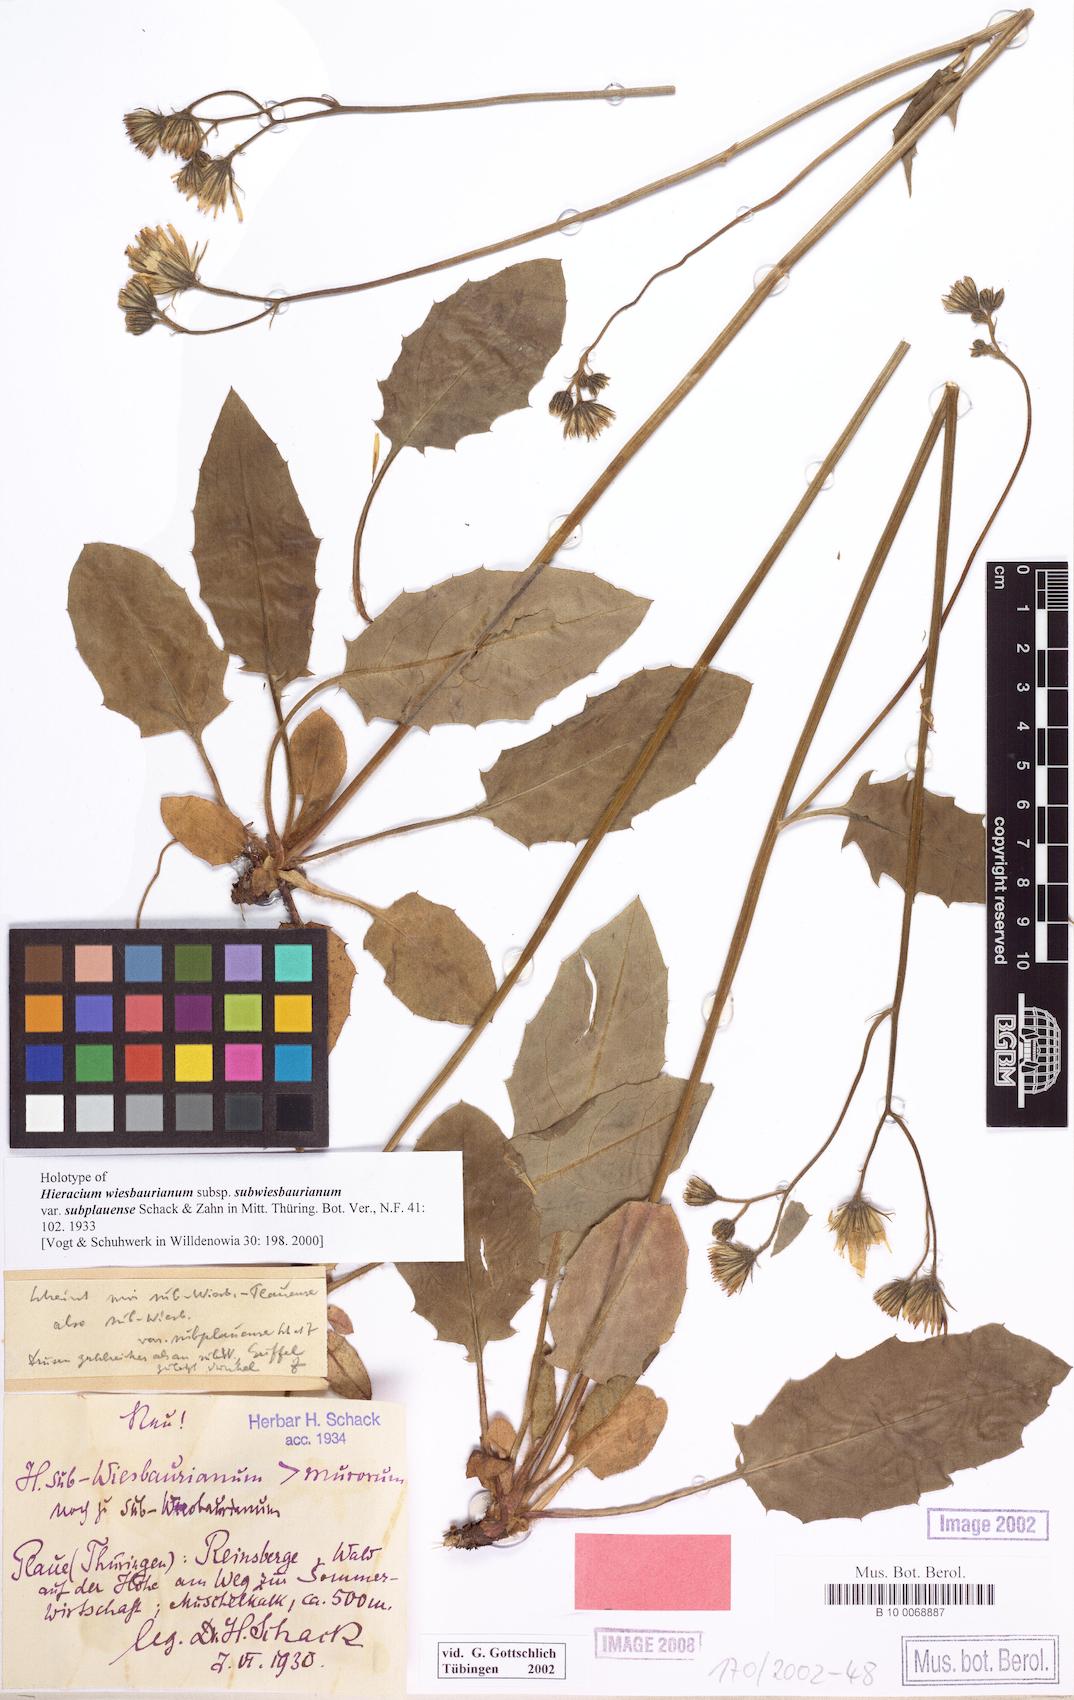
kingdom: Plantae
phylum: Tracheophyta
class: Magnoliopsida
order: Asterales
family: Asteraceae
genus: Hieracium
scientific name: Hieracium hypochoeroides
